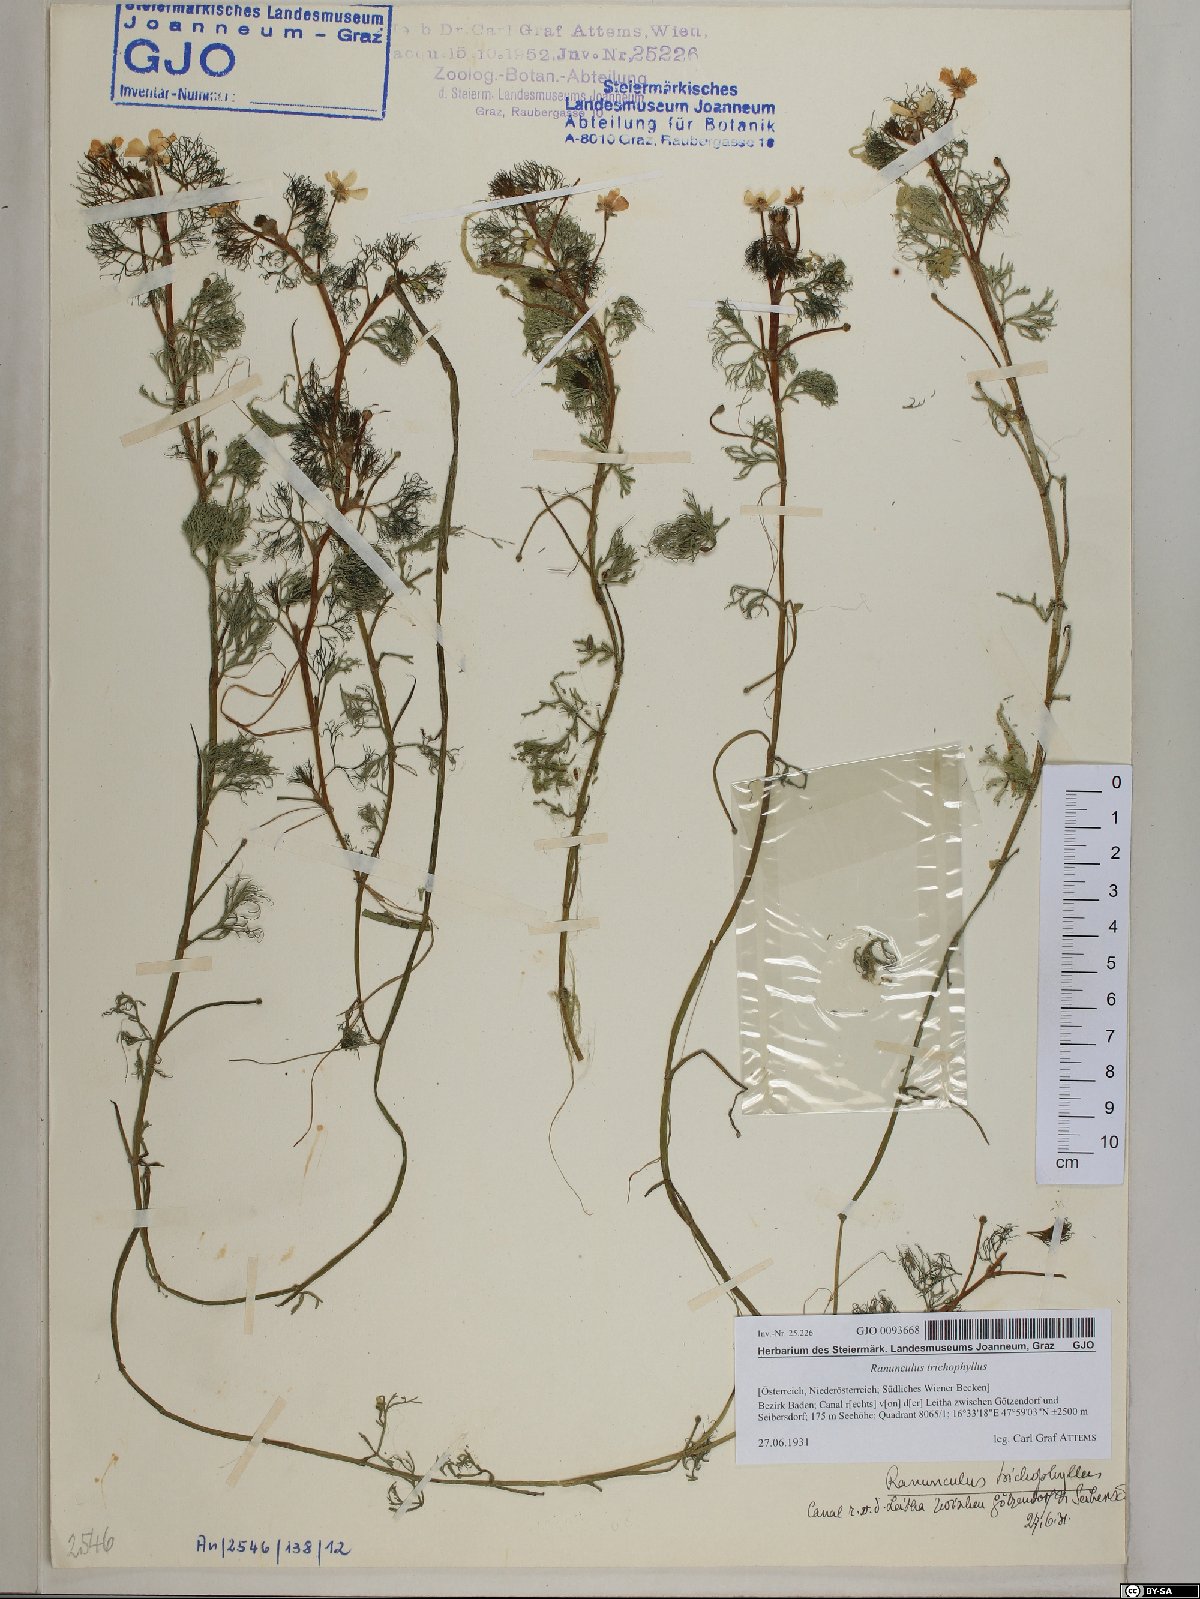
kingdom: Plantae
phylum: Tracheophyta
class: Magnoliopsida
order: Ranunculales
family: Ranunculaceae
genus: Ranunculus
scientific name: Ranunculus trichophyllus
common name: Thread-leaved water-crowfoot
